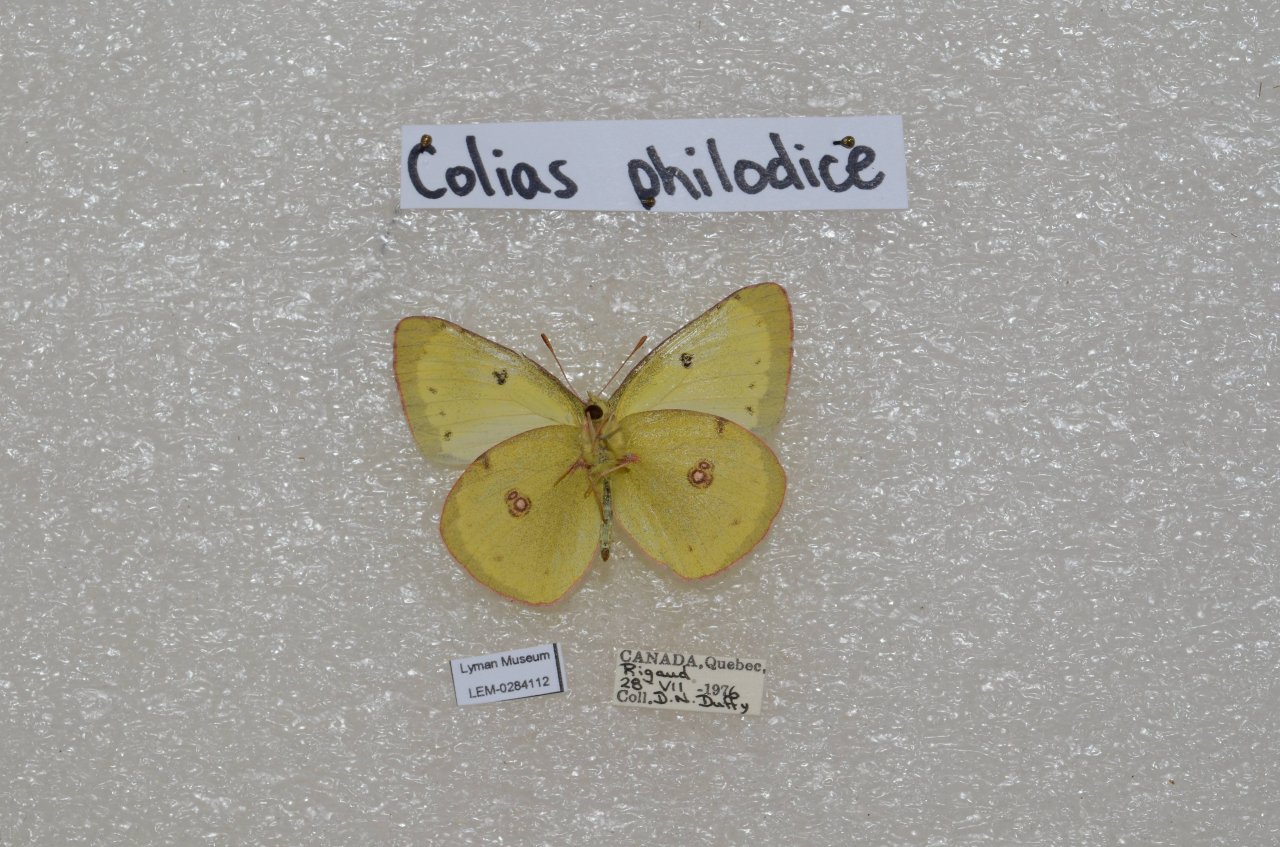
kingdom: Animalia
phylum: Arthropoda
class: Insecta
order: Lepidoptera
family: Pieridae
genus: Colias
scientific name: Colias philodice
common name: Clouded Sulphur
